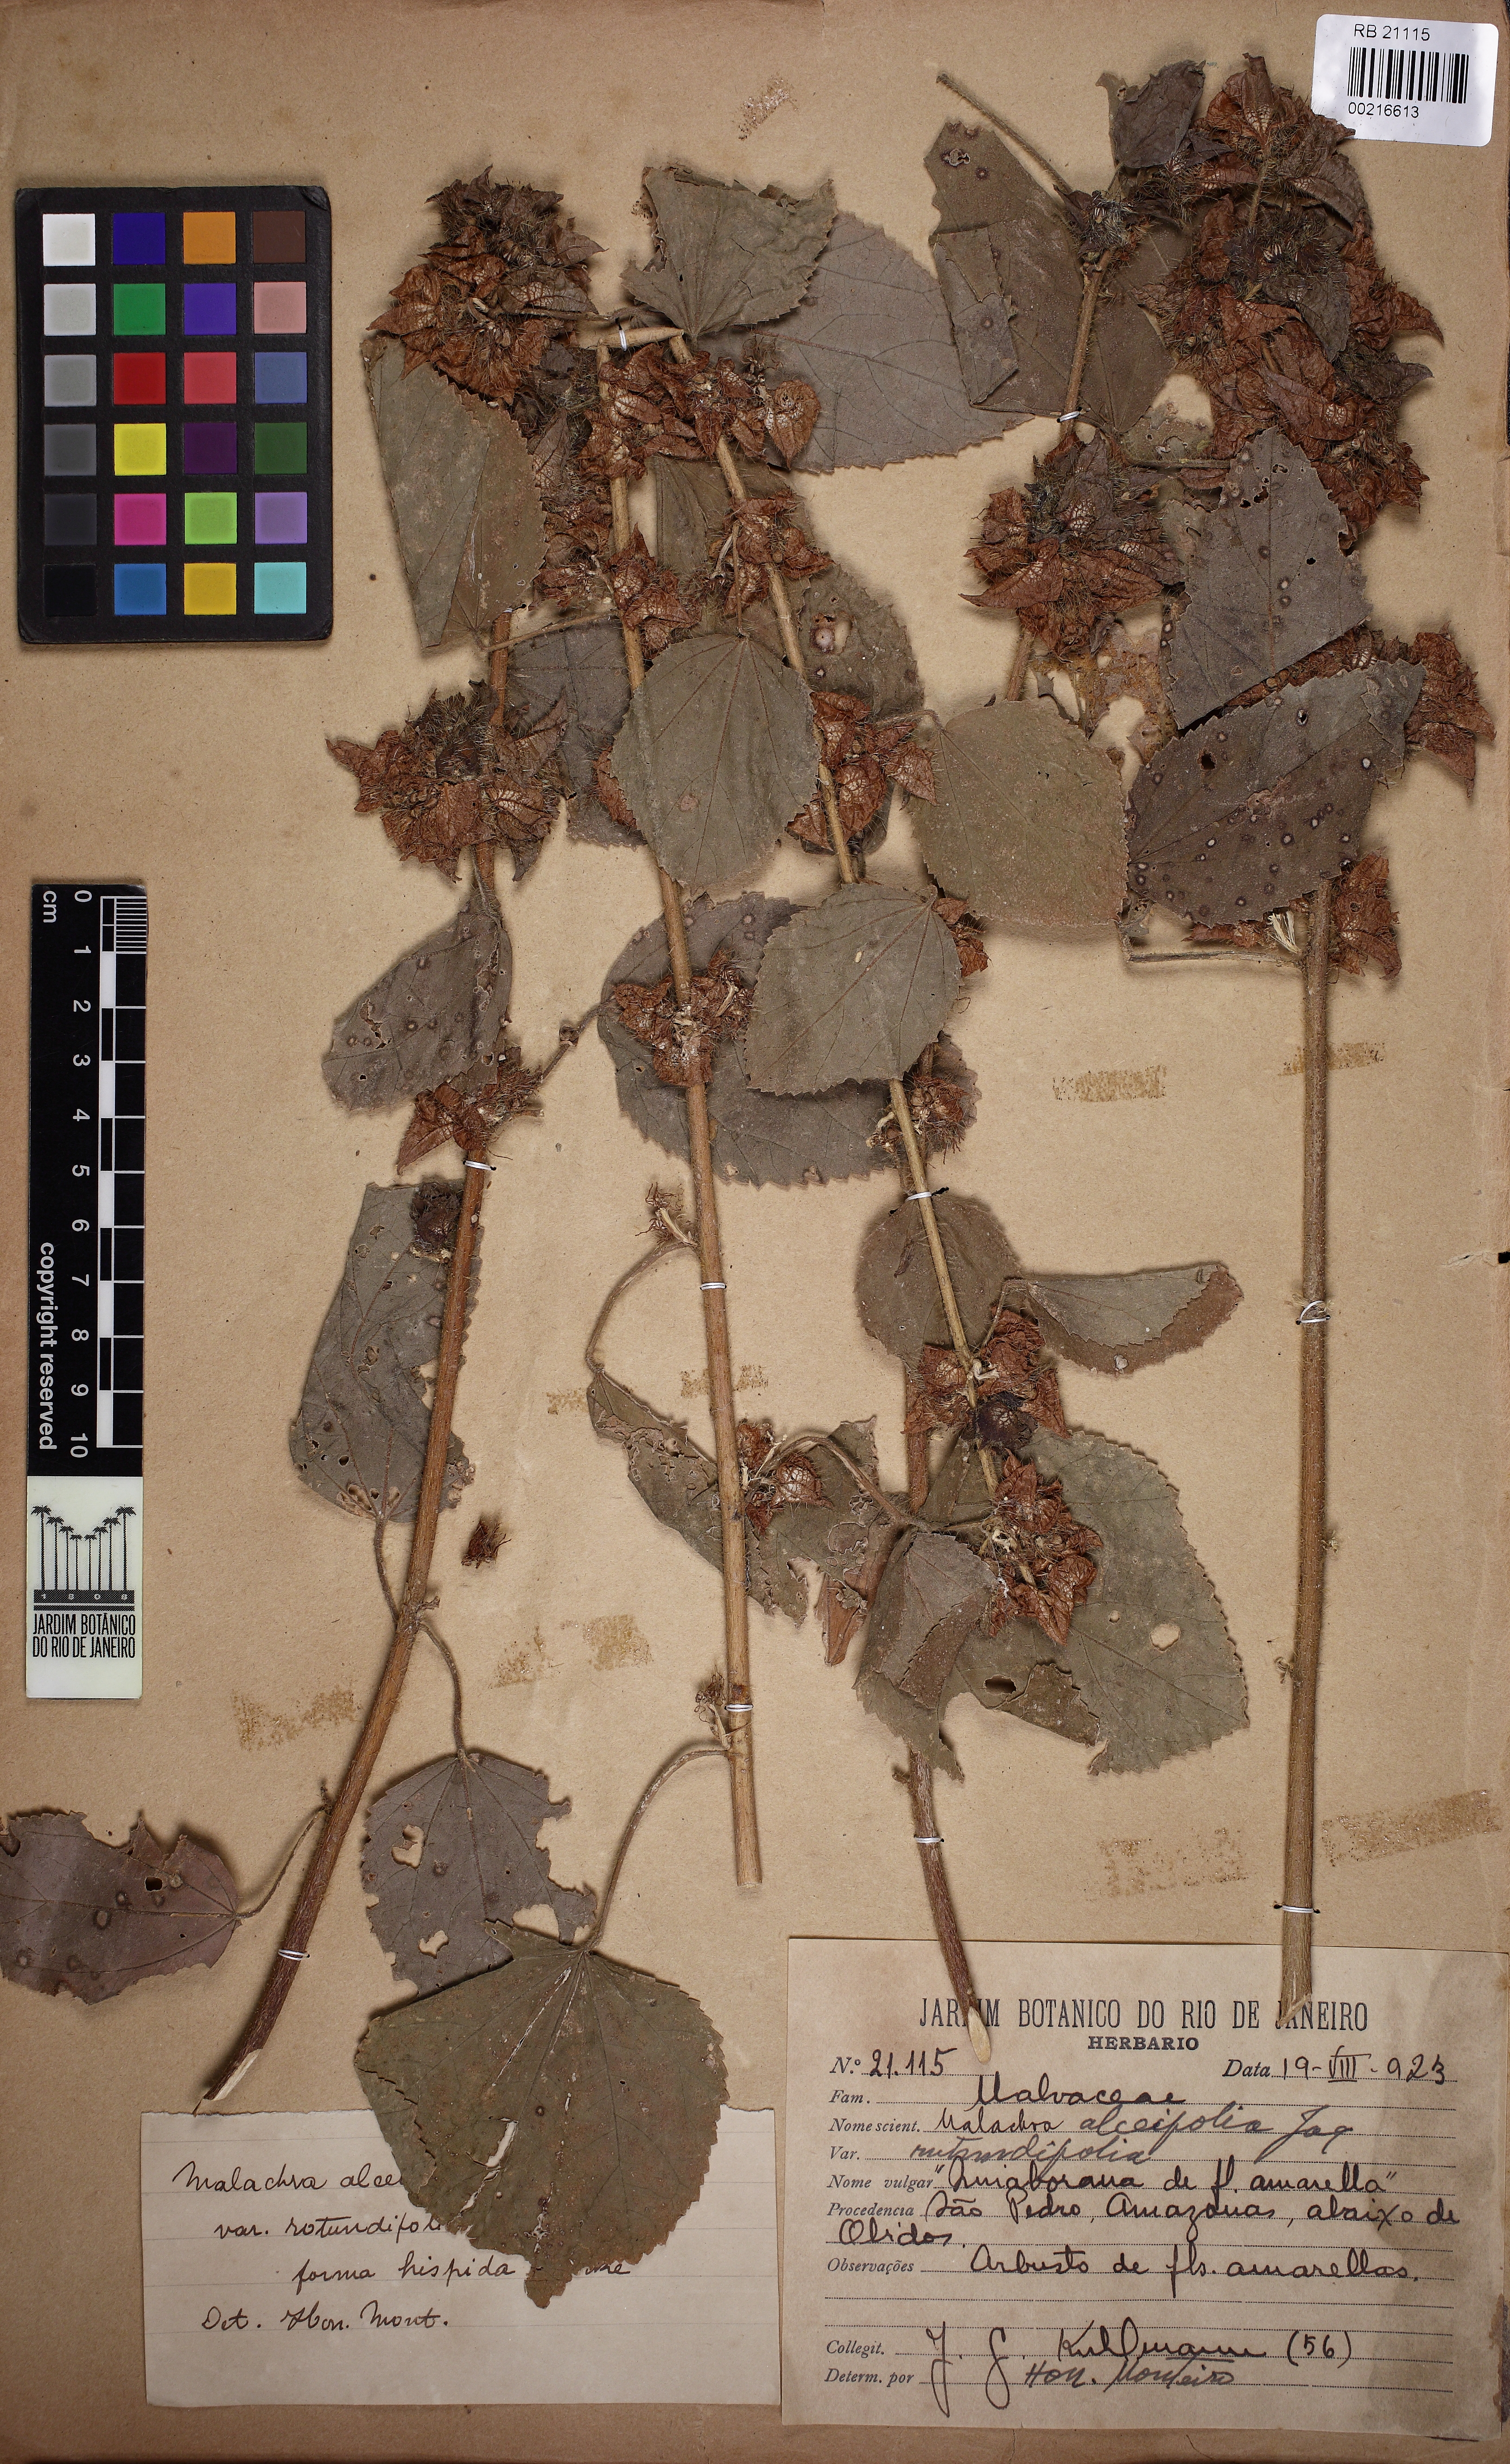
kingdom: Plantae
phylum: Tracheophyta
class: Magnoliopsida
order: Malvales
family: Malvaceae
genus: Malachra
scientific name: Malachra alceifolia
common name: Yellow leafbract
